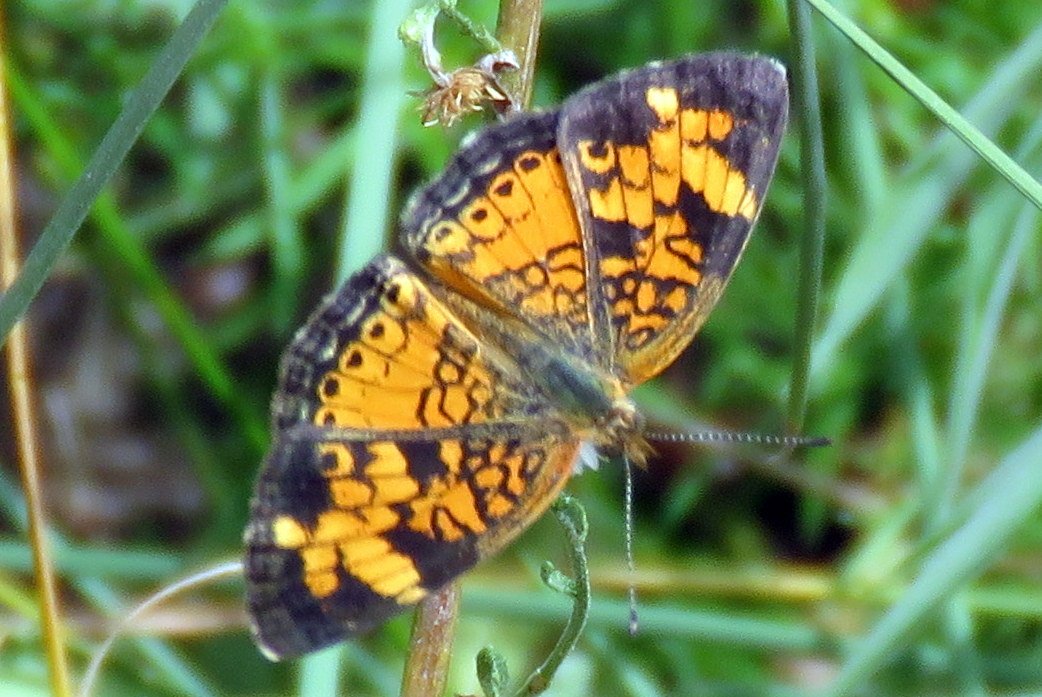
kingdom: Animalia
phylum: Arthropoda
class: Insecta
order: Lepidoptera
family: Nymphalidae
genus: Phyciodes
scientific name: Phyciodes tharos
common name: Pearl Crescent
